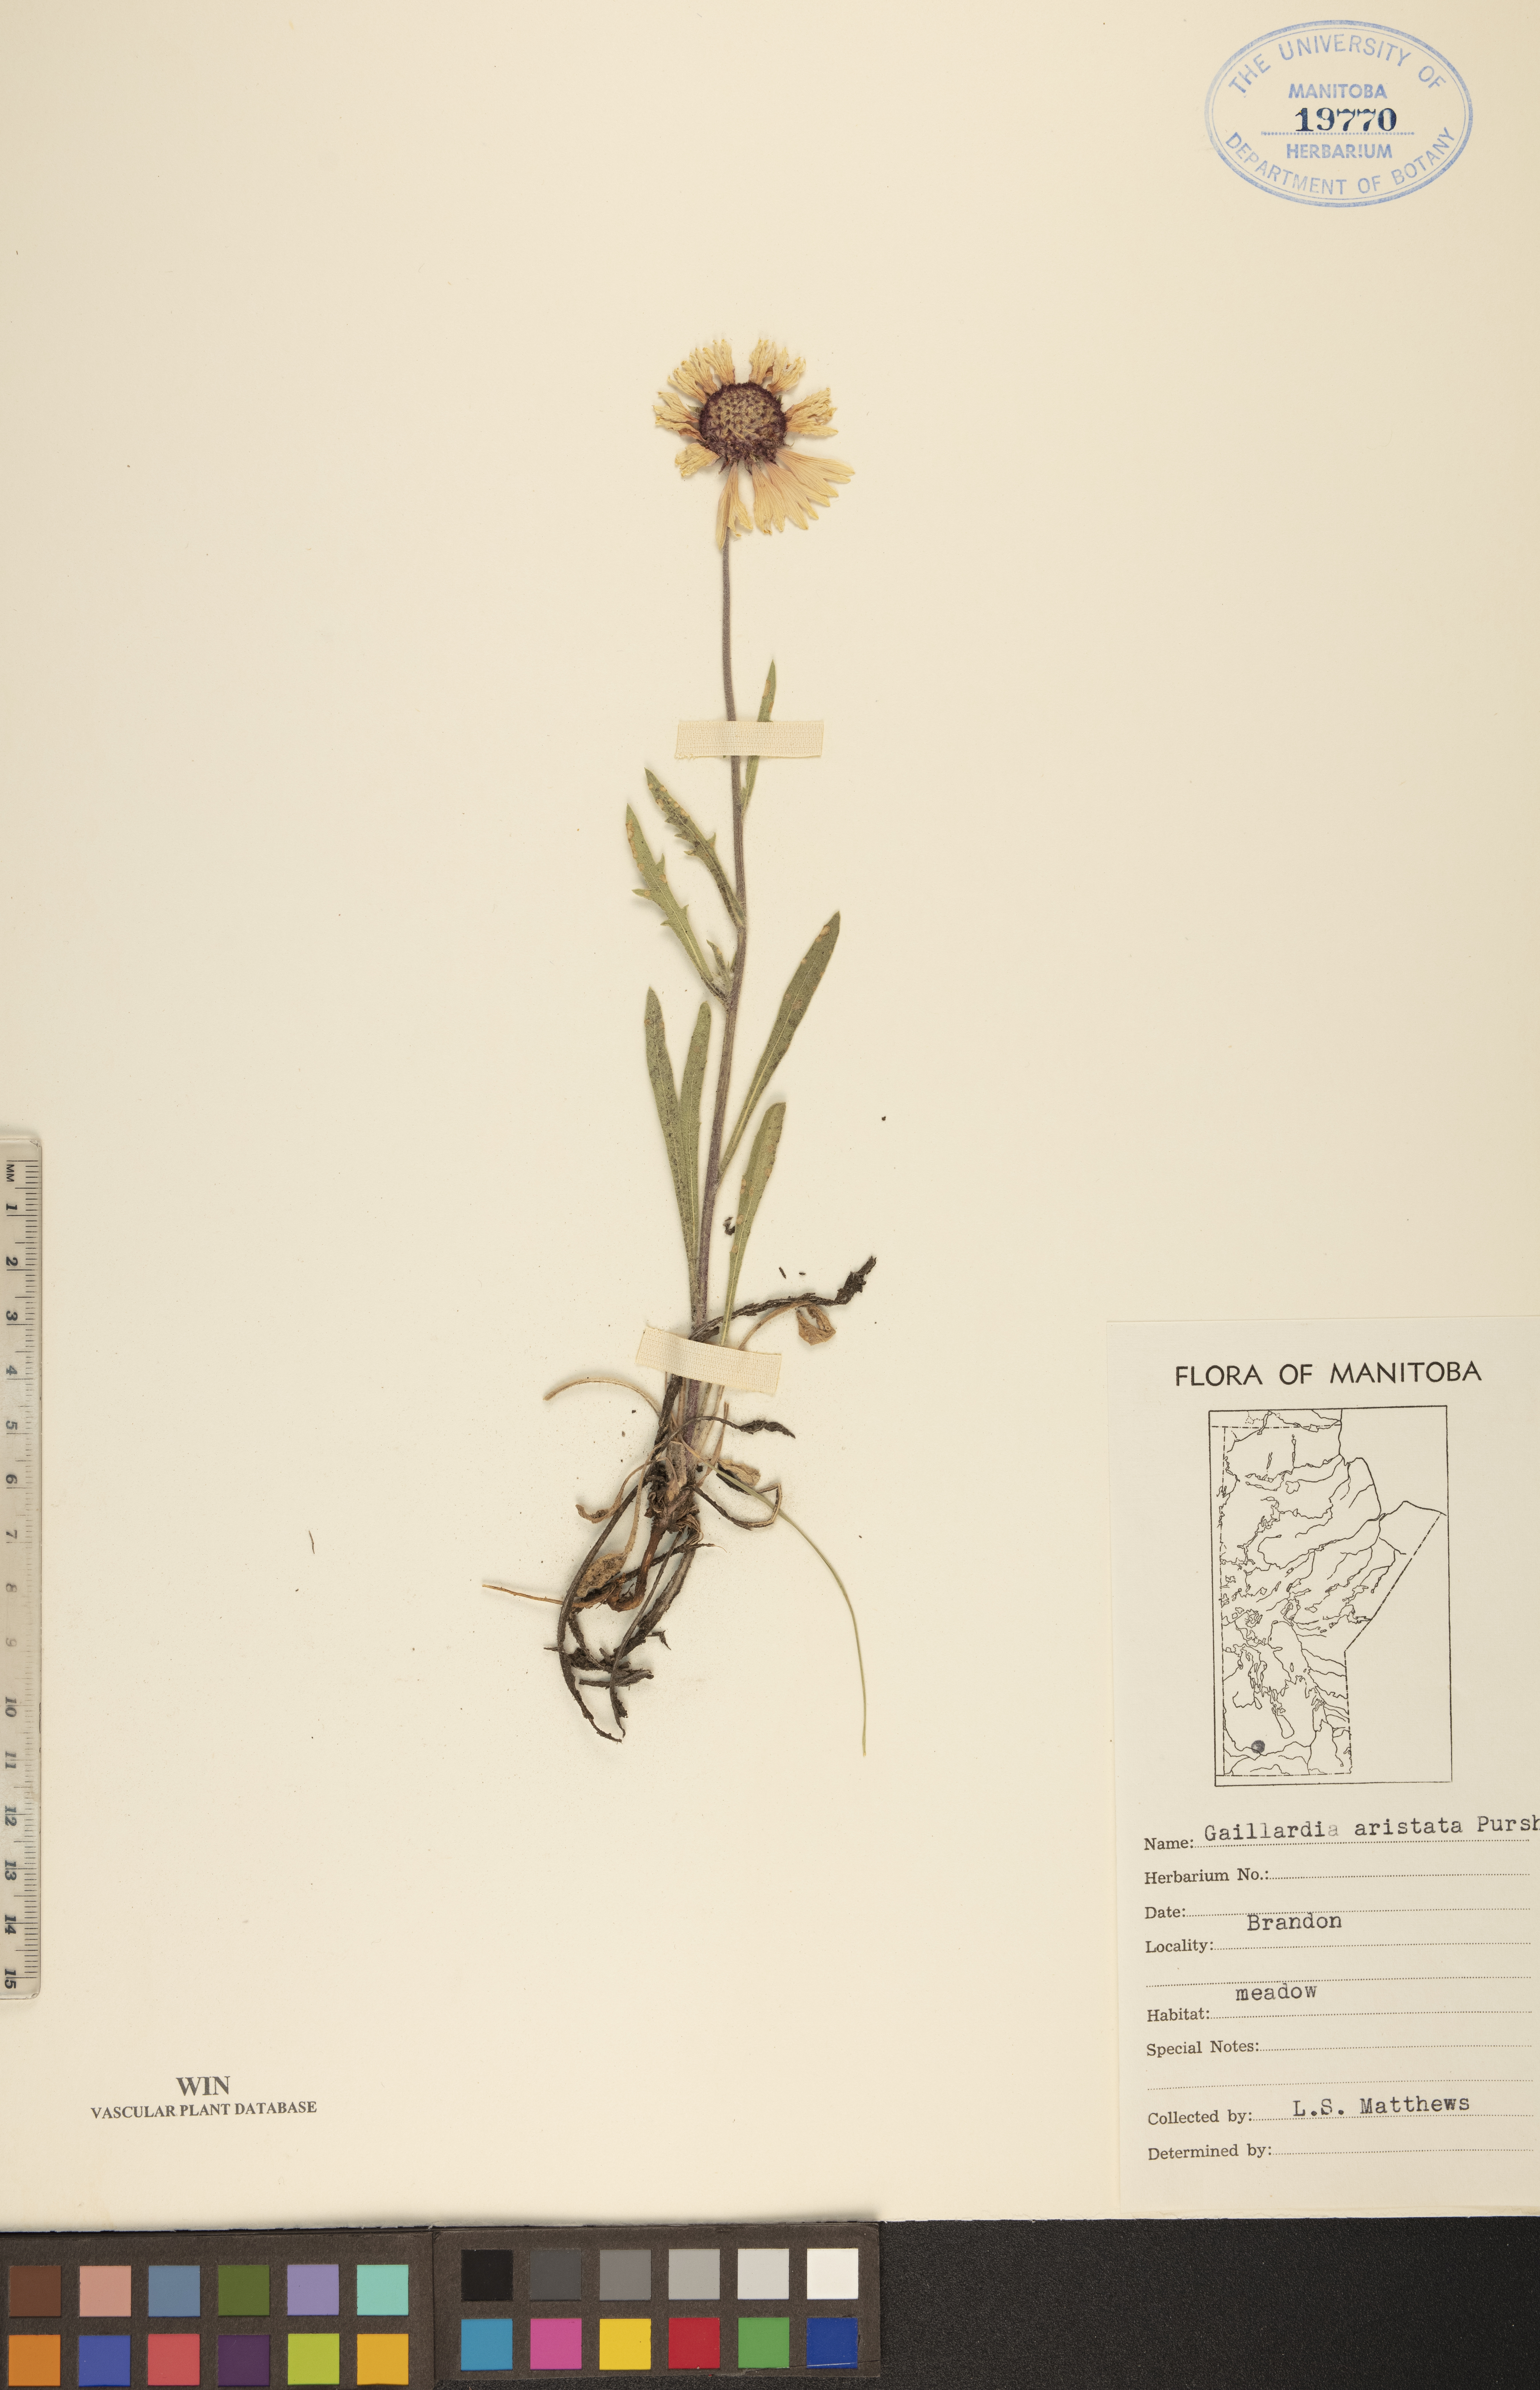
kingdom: Plantae
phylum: Tracheophyta
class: Magnoliopsida
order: Asterales
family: Asteraceae
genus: Gaillardia
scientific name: Gaillardia aristata
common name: Blanket-flower
